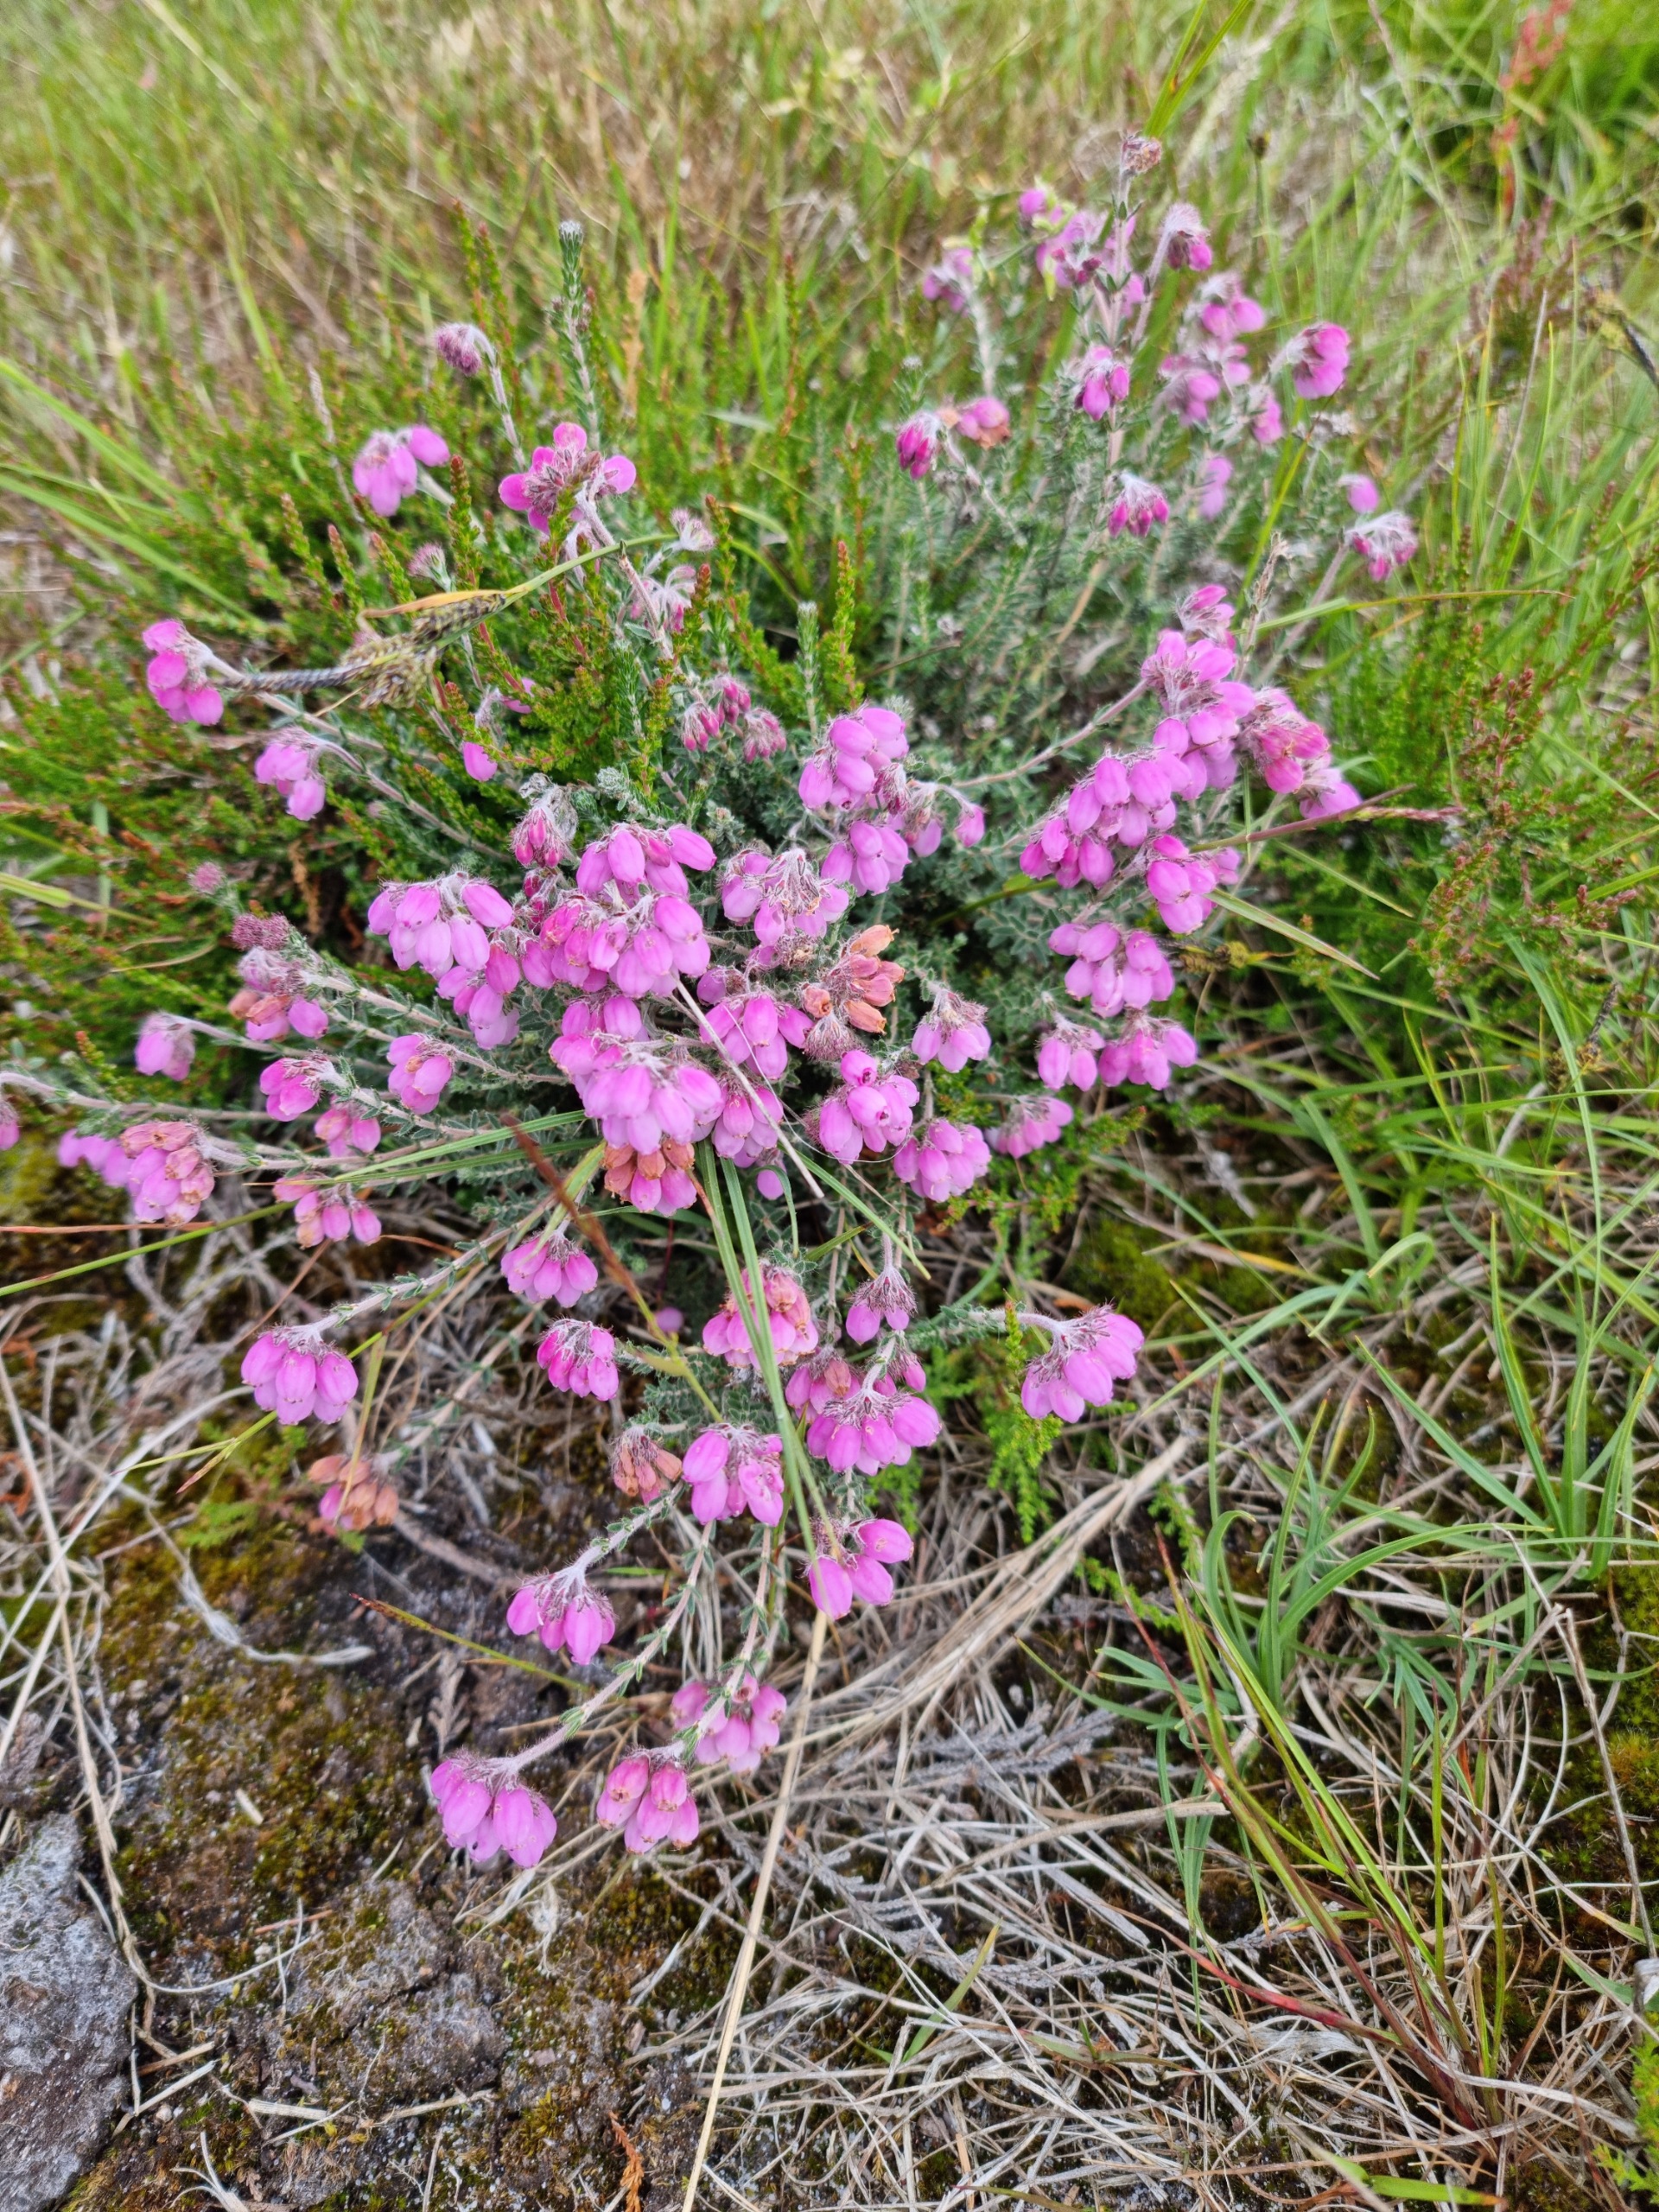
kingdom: Plantae
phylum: Tracheophyta
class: Magnoliopsida
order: Ericales
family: Ericaceae
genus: Erica
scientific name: Erica tetralix
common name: Klokkelyng
